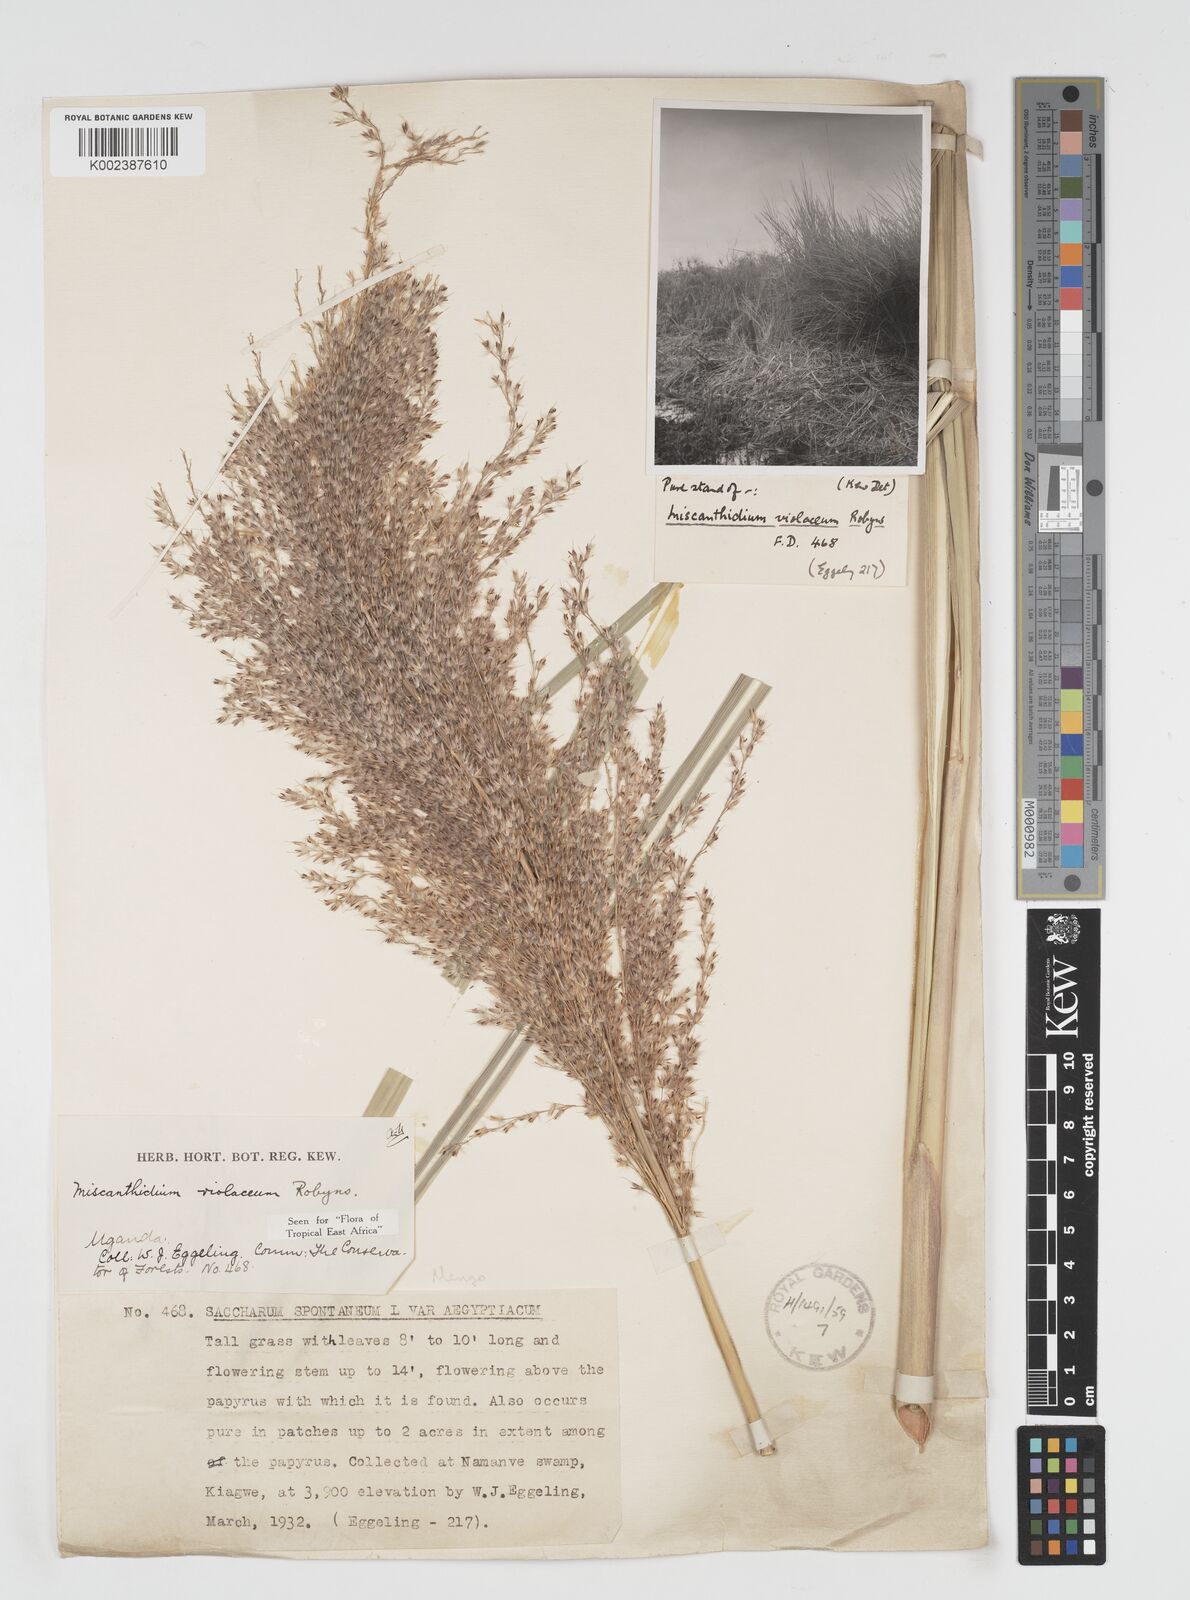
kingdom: Plantae
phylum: Tracheophyta
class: Liliopsida
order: Poales
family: Poaceae
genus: Miscanthidium
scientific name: Miscanthidium violaceum
